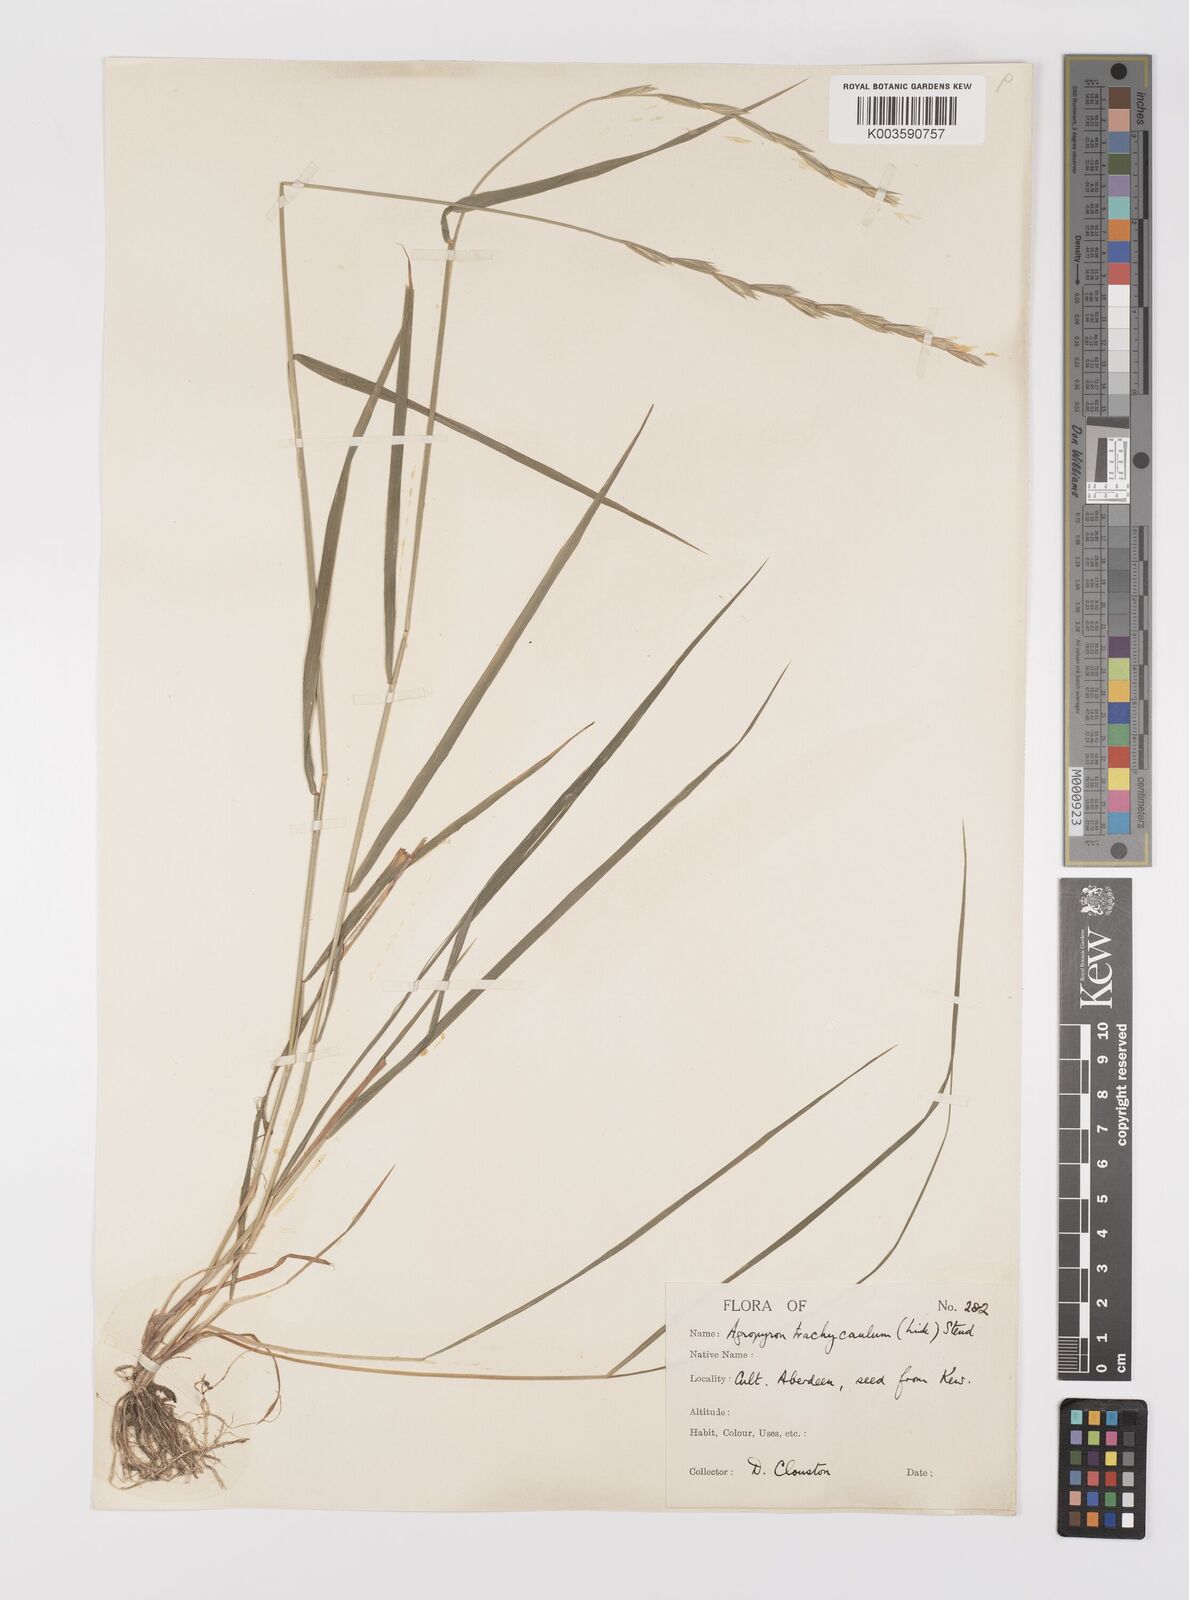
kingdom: Plantae
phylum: Tracheophyta
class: Liliopsida
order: Poales
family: Poaceae
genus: Elymus
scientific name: Elymus violaceus
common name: Arctic wheatgrass
